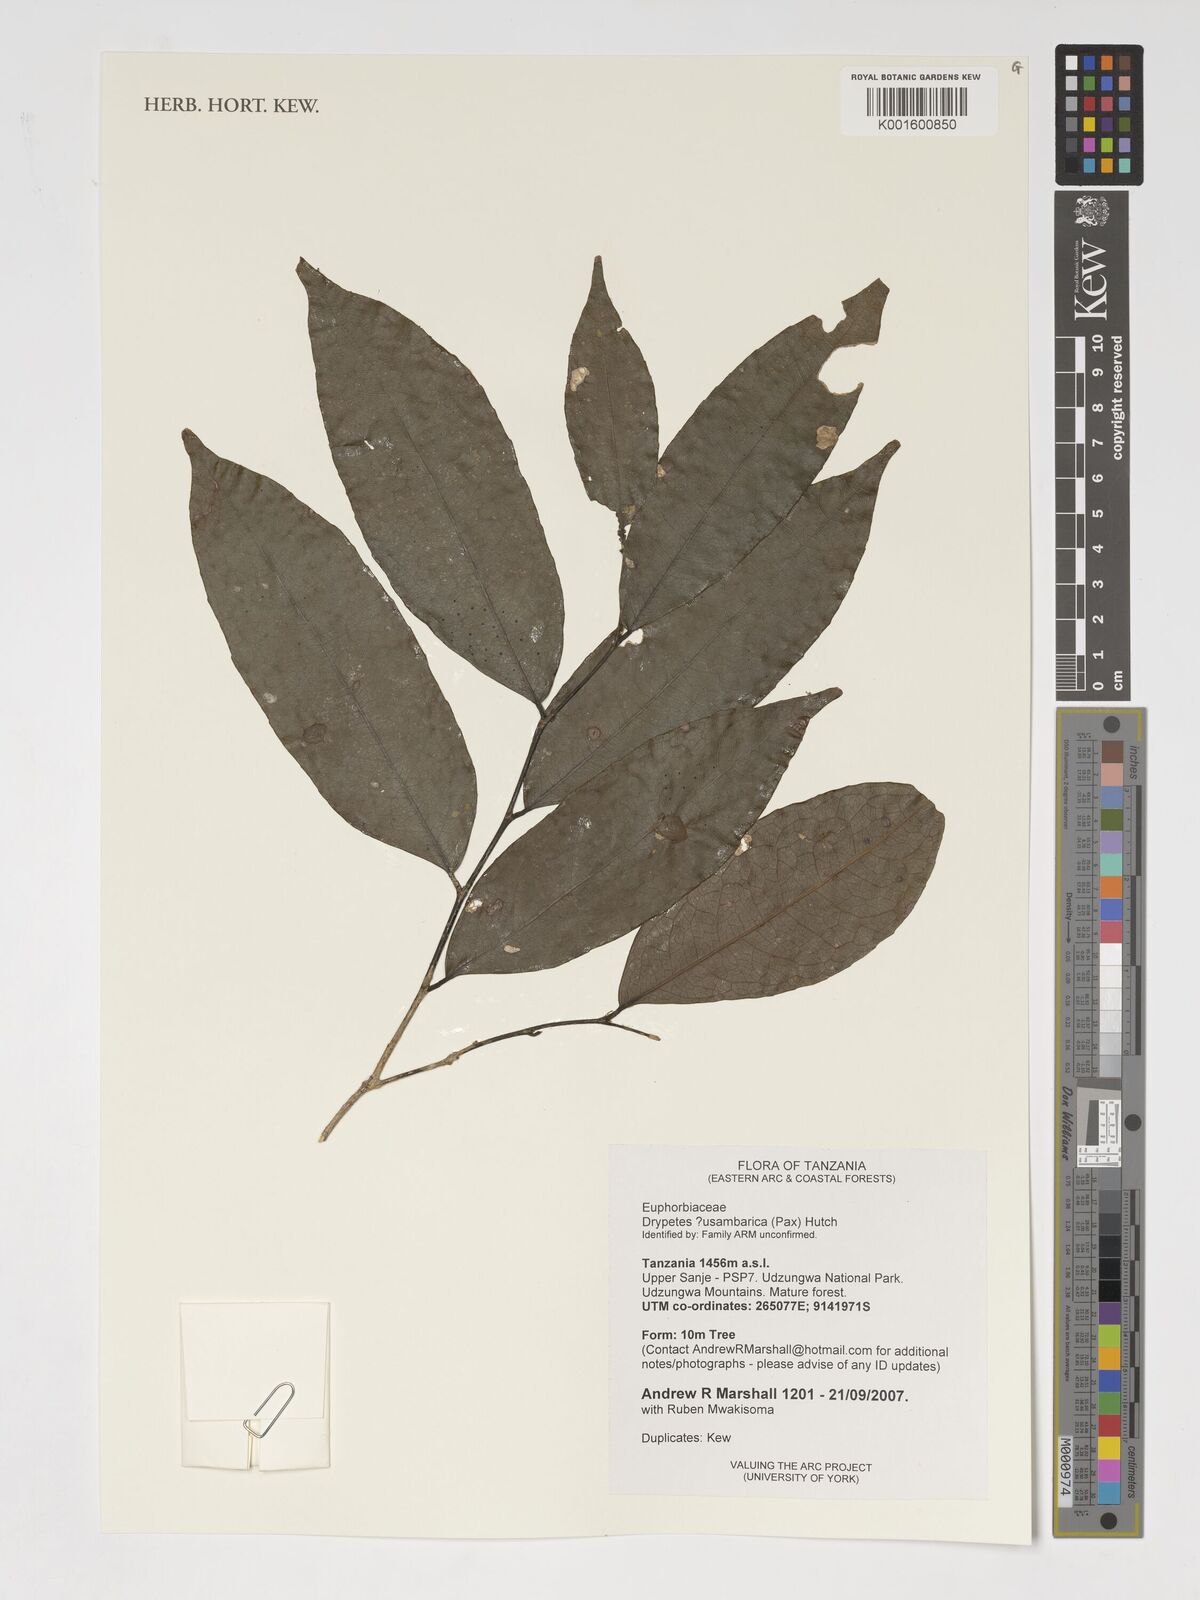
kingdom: Plantae
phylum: Tracheophyta
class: Magnoliopsida
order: Malpighiales
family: Putranjivaceae
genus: Drypetes
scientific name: Drypetes usambarica
